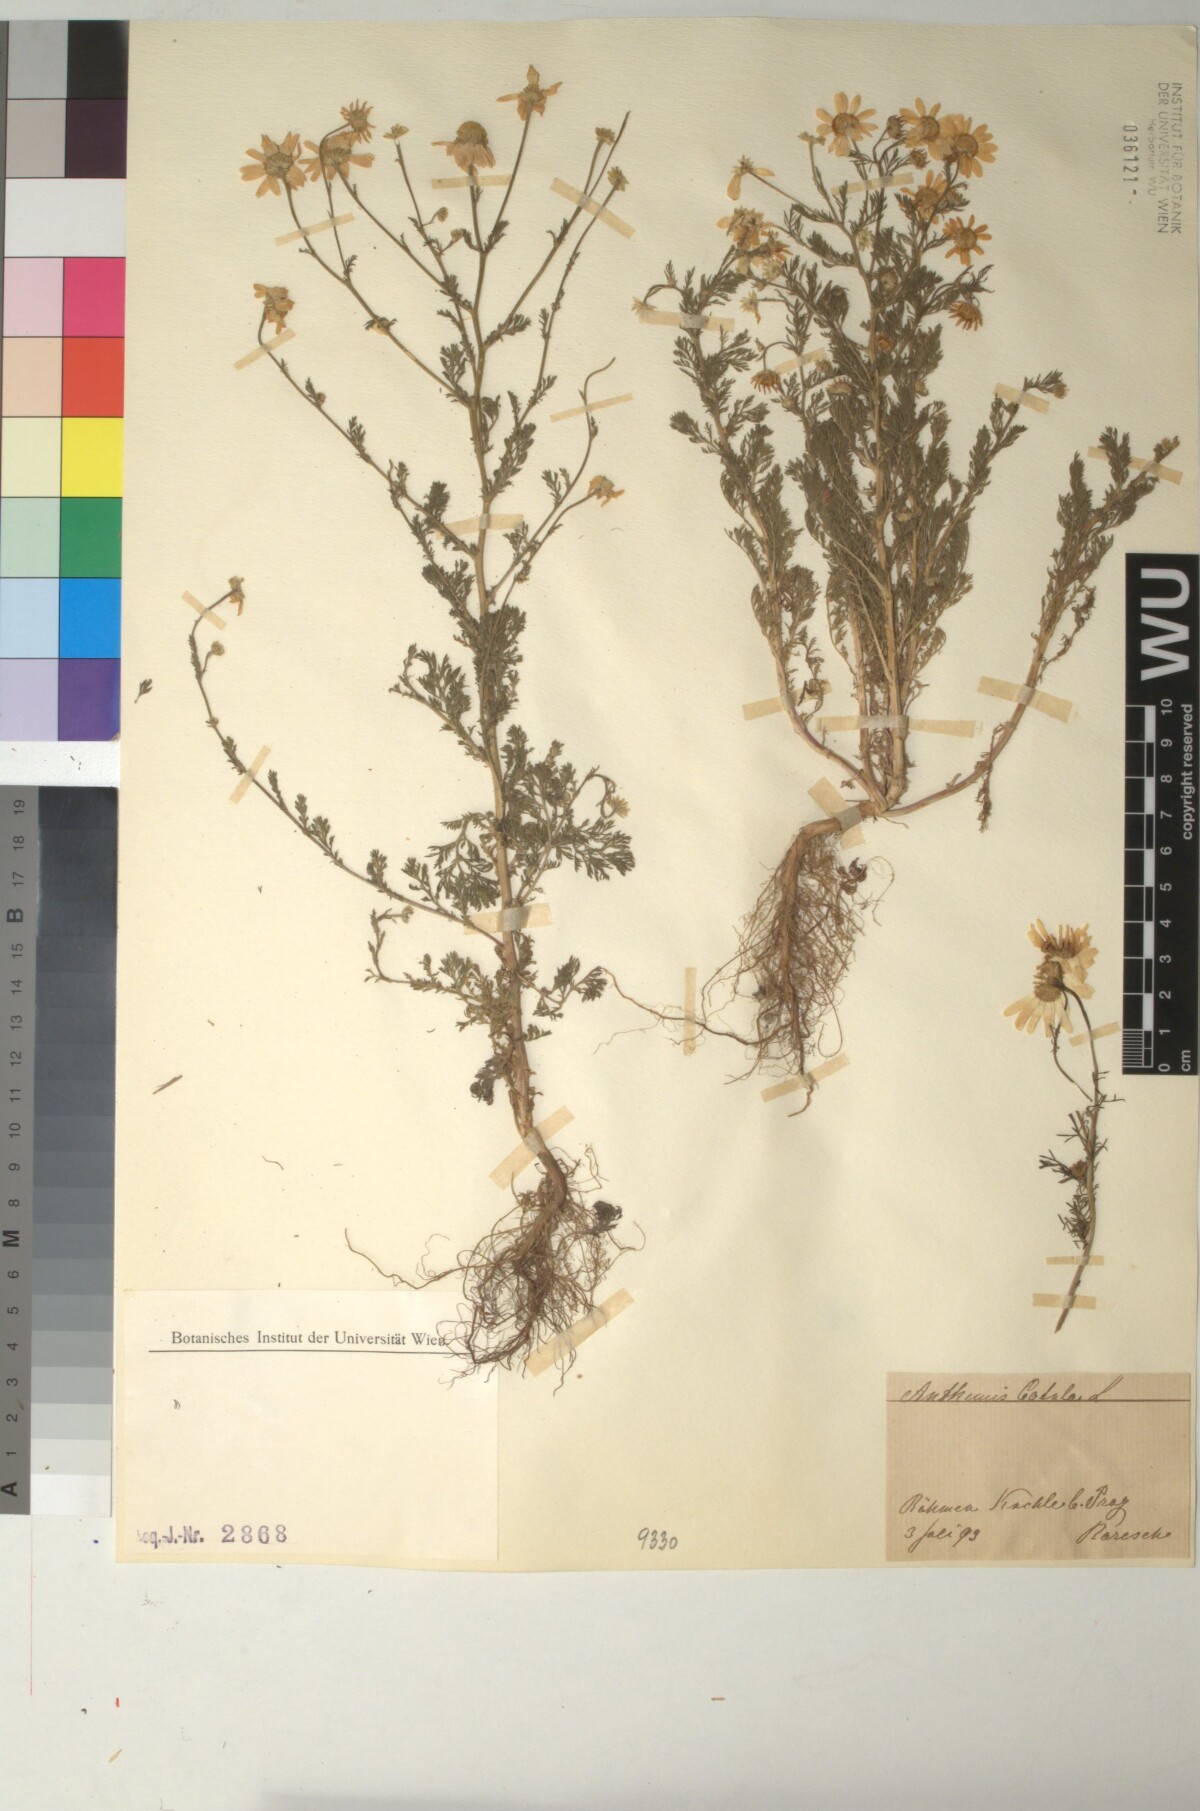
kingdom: Plantae
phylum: Tracheophyta
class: Magnoliopsida
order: Asterales
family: Asteraceae
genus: Anthemis
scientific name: Anthemis cotula
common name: Stinking chamomile
